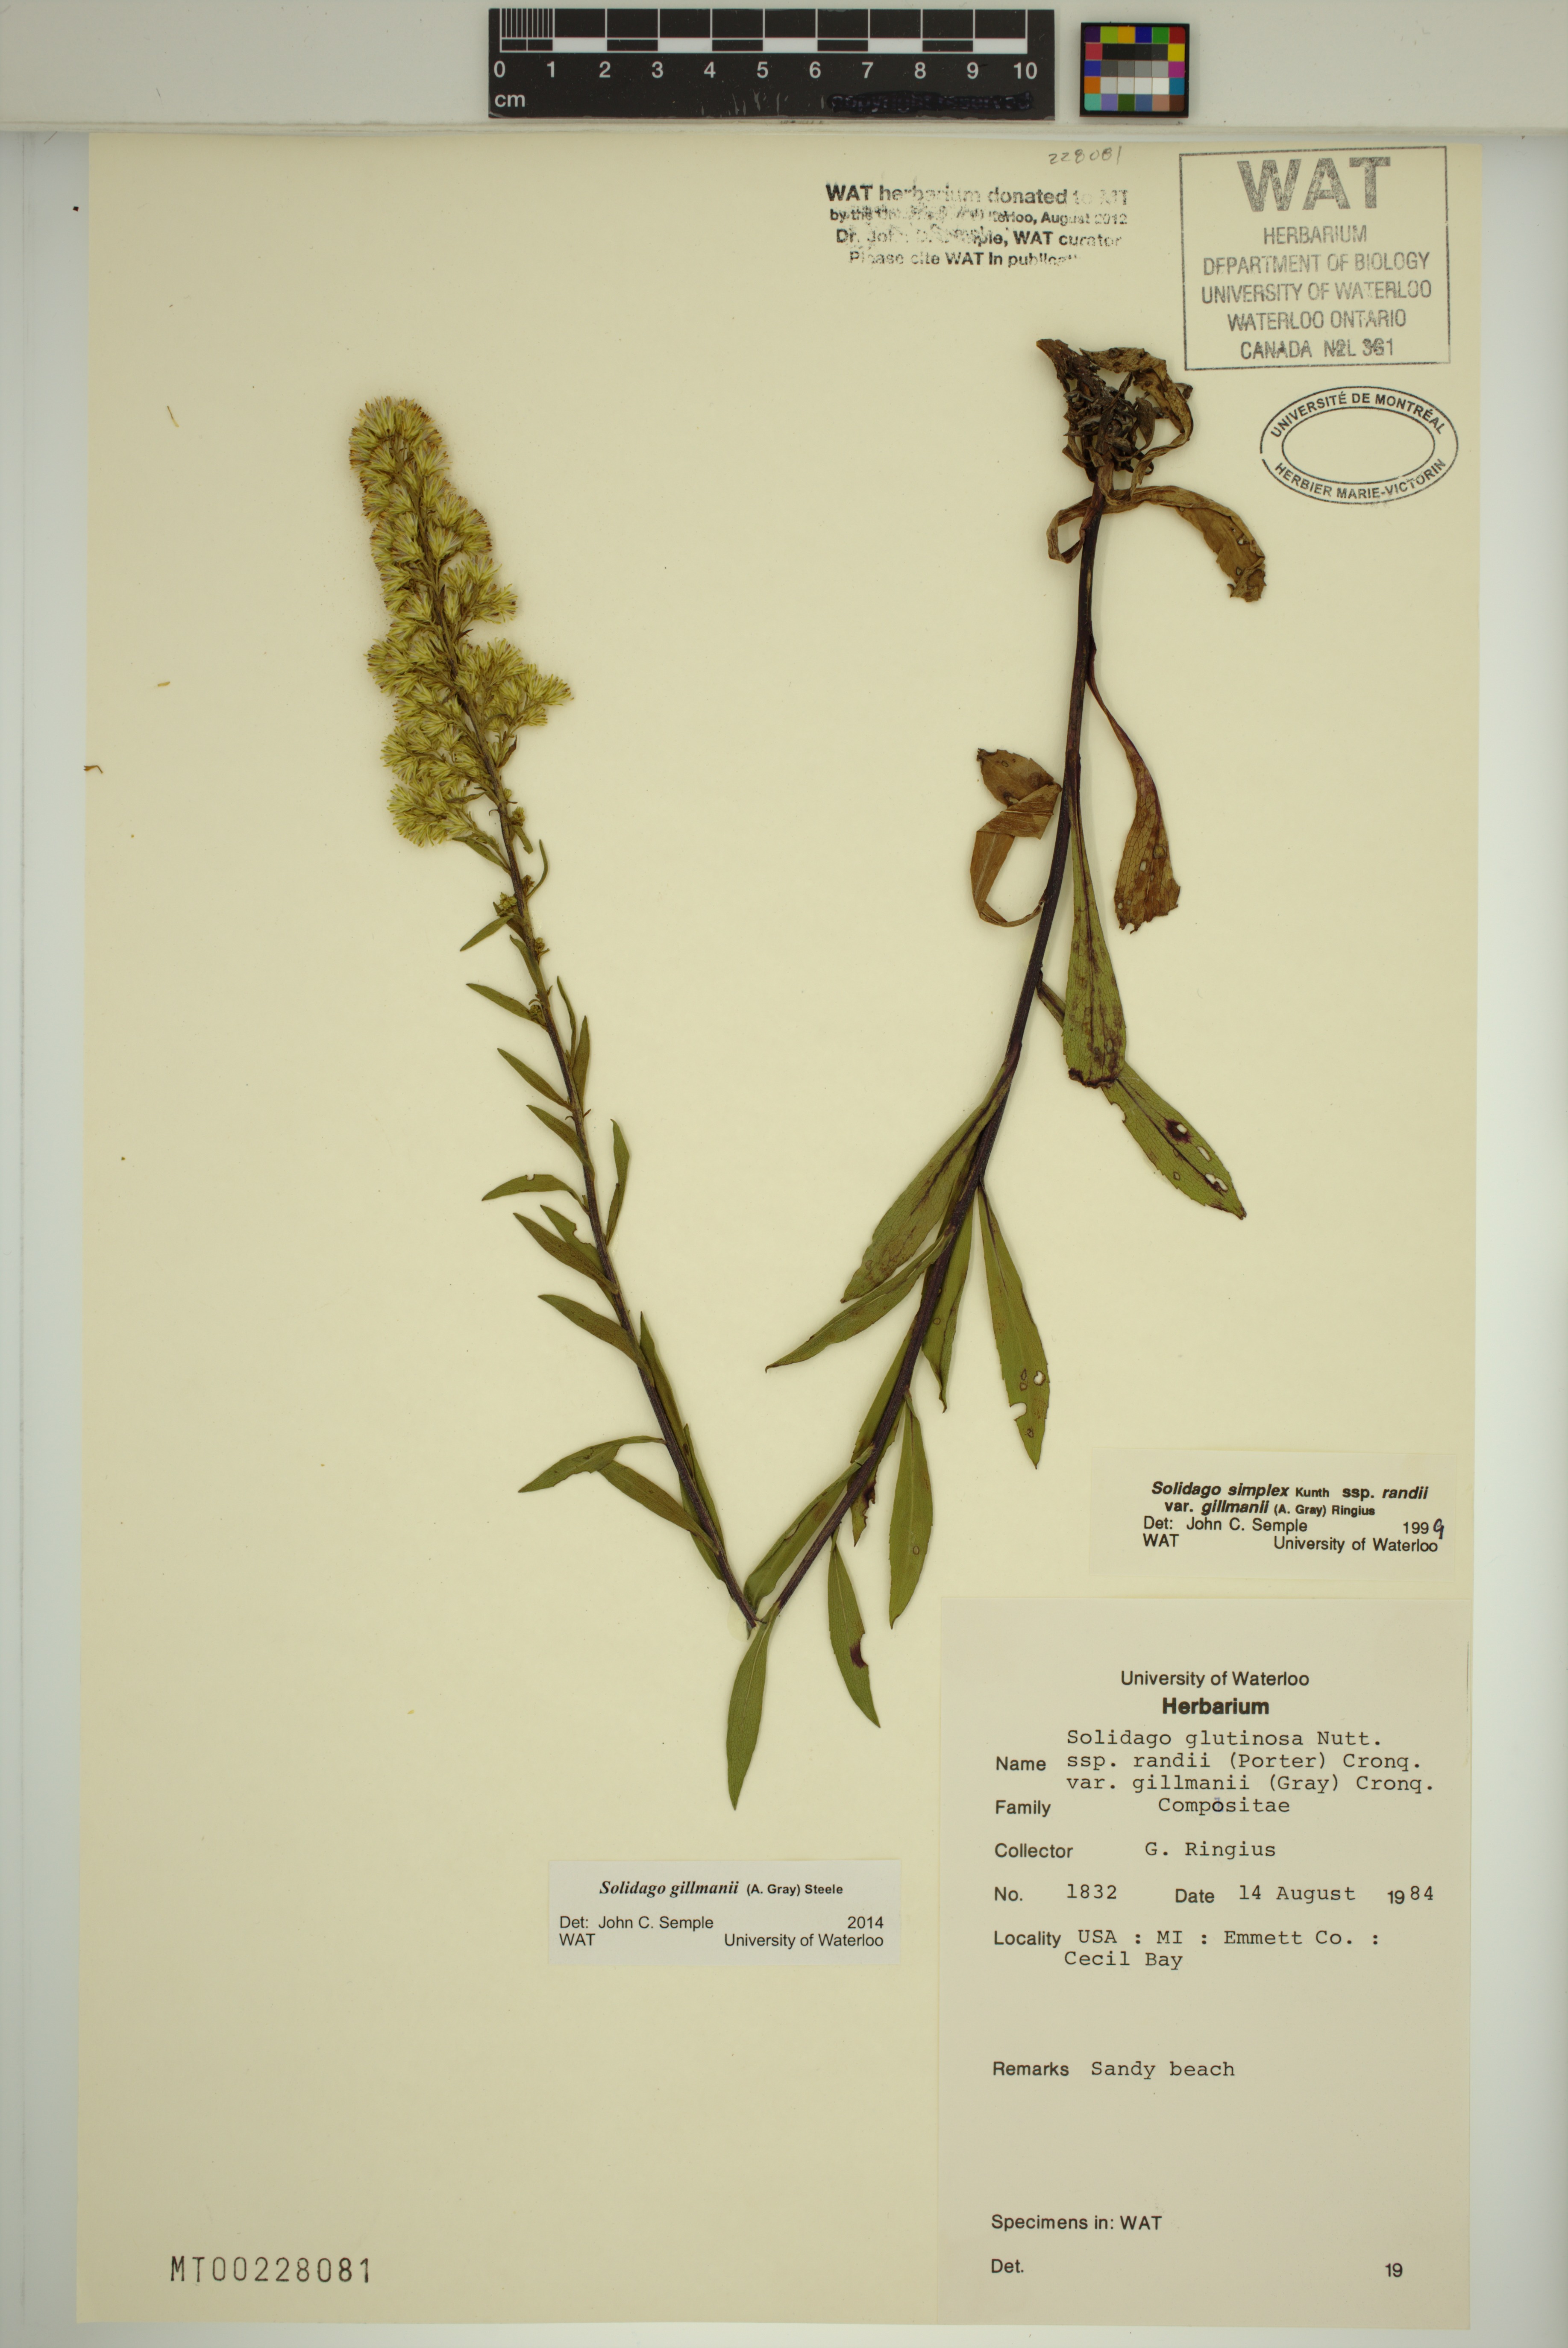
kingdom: Plantae
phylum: Tracheophyta
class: Magnoliopsida
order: Asterales
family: Asteraceae
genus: Solidago
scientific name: Solidago gillmanii
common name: Gillman's goldenrod
